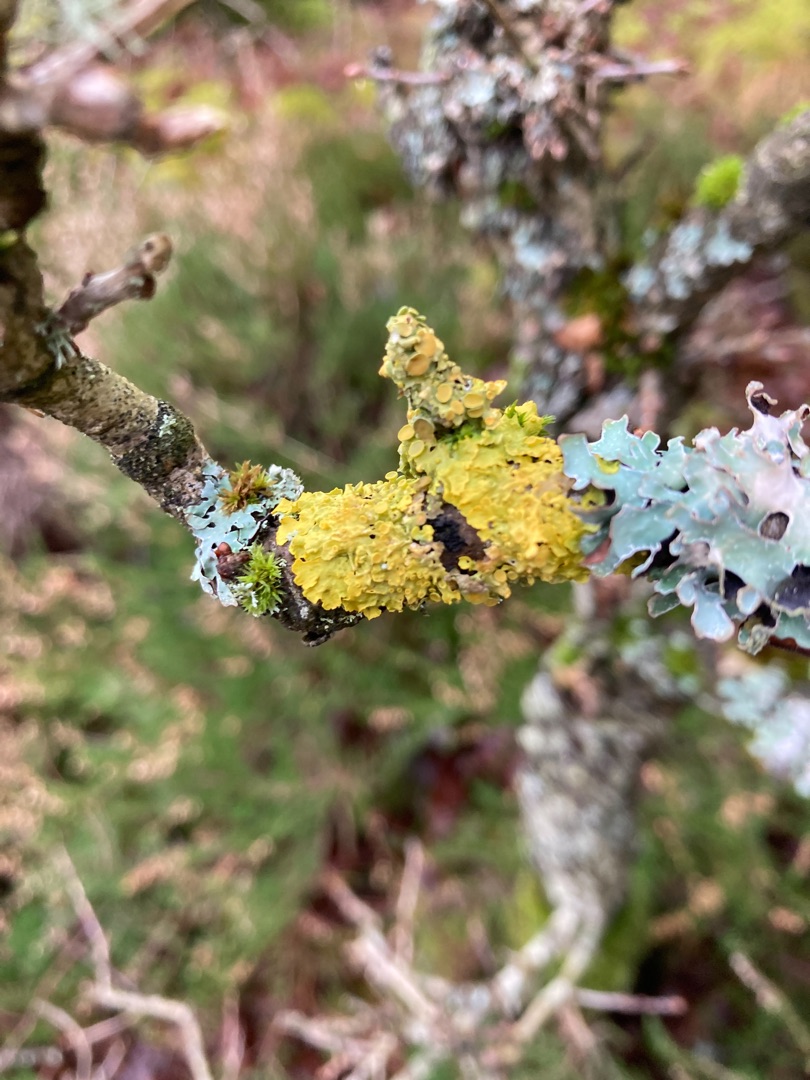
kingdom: Fungi
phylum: Ascomycota
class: Lecanoromycetes
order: Teloschistales
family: Teloschistaceae
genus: Xanthoria
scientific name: Xanthoria parietina
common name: Almindelig væggelav
